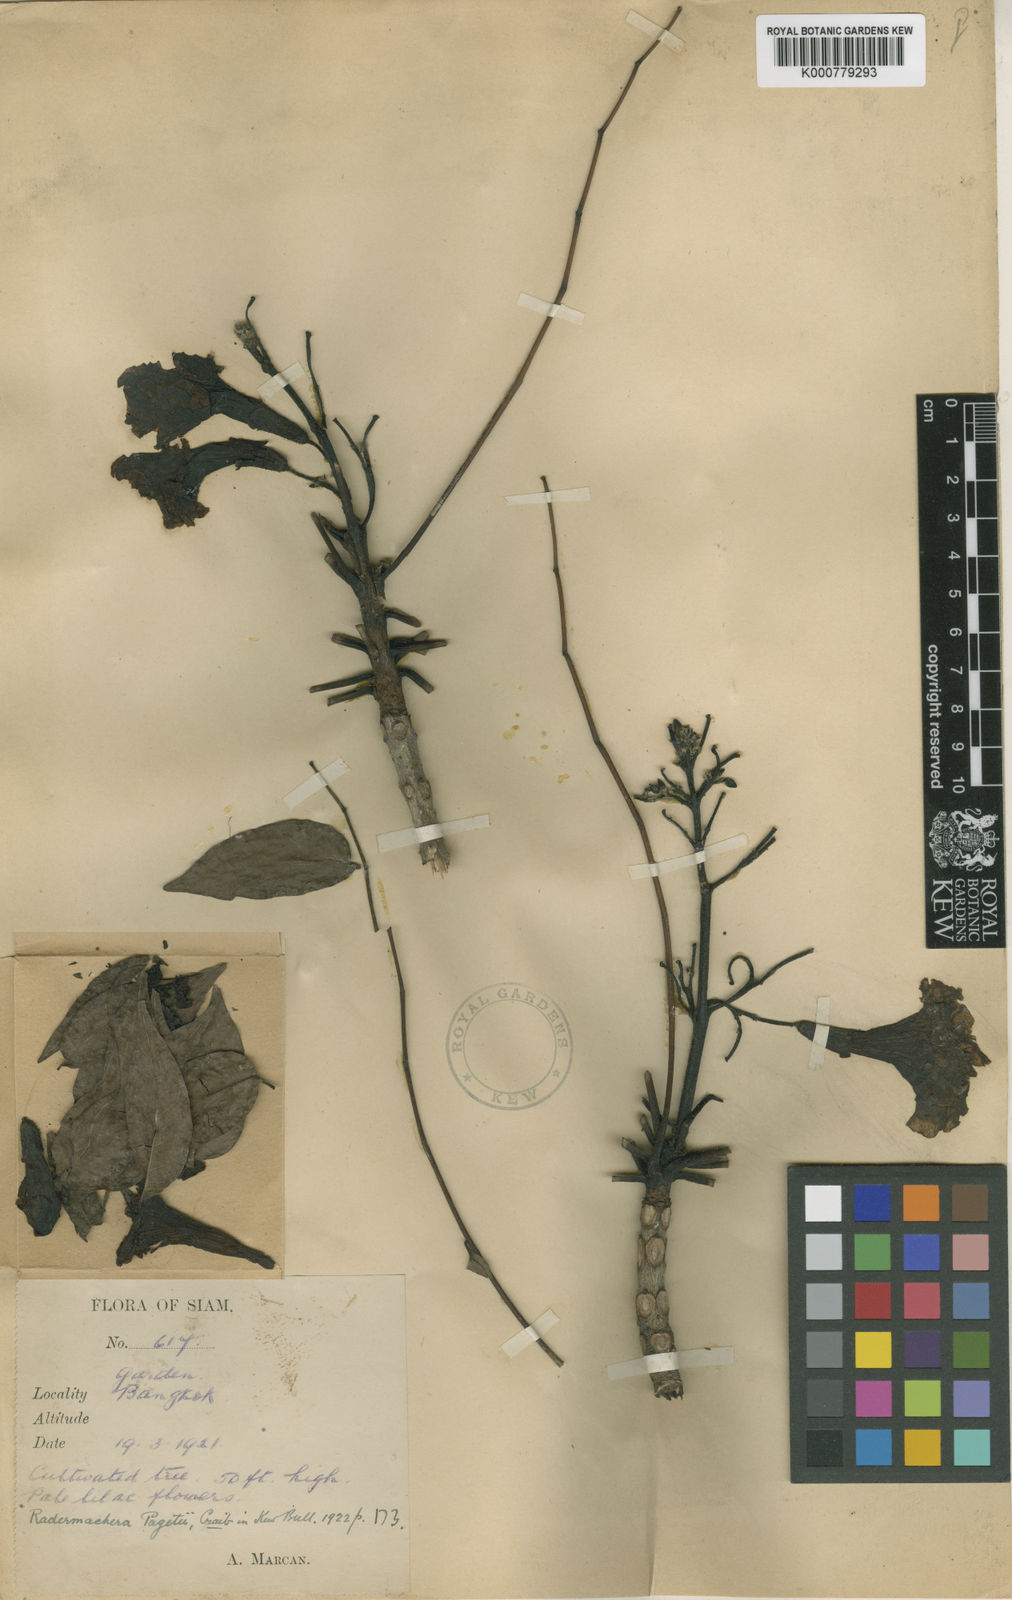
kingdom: Plantae
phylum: Tracheophyta
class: Magnoliopsida
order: Lamiales
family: Bignoniaceae
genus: Santisukia
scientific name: Santisukia pagetii
